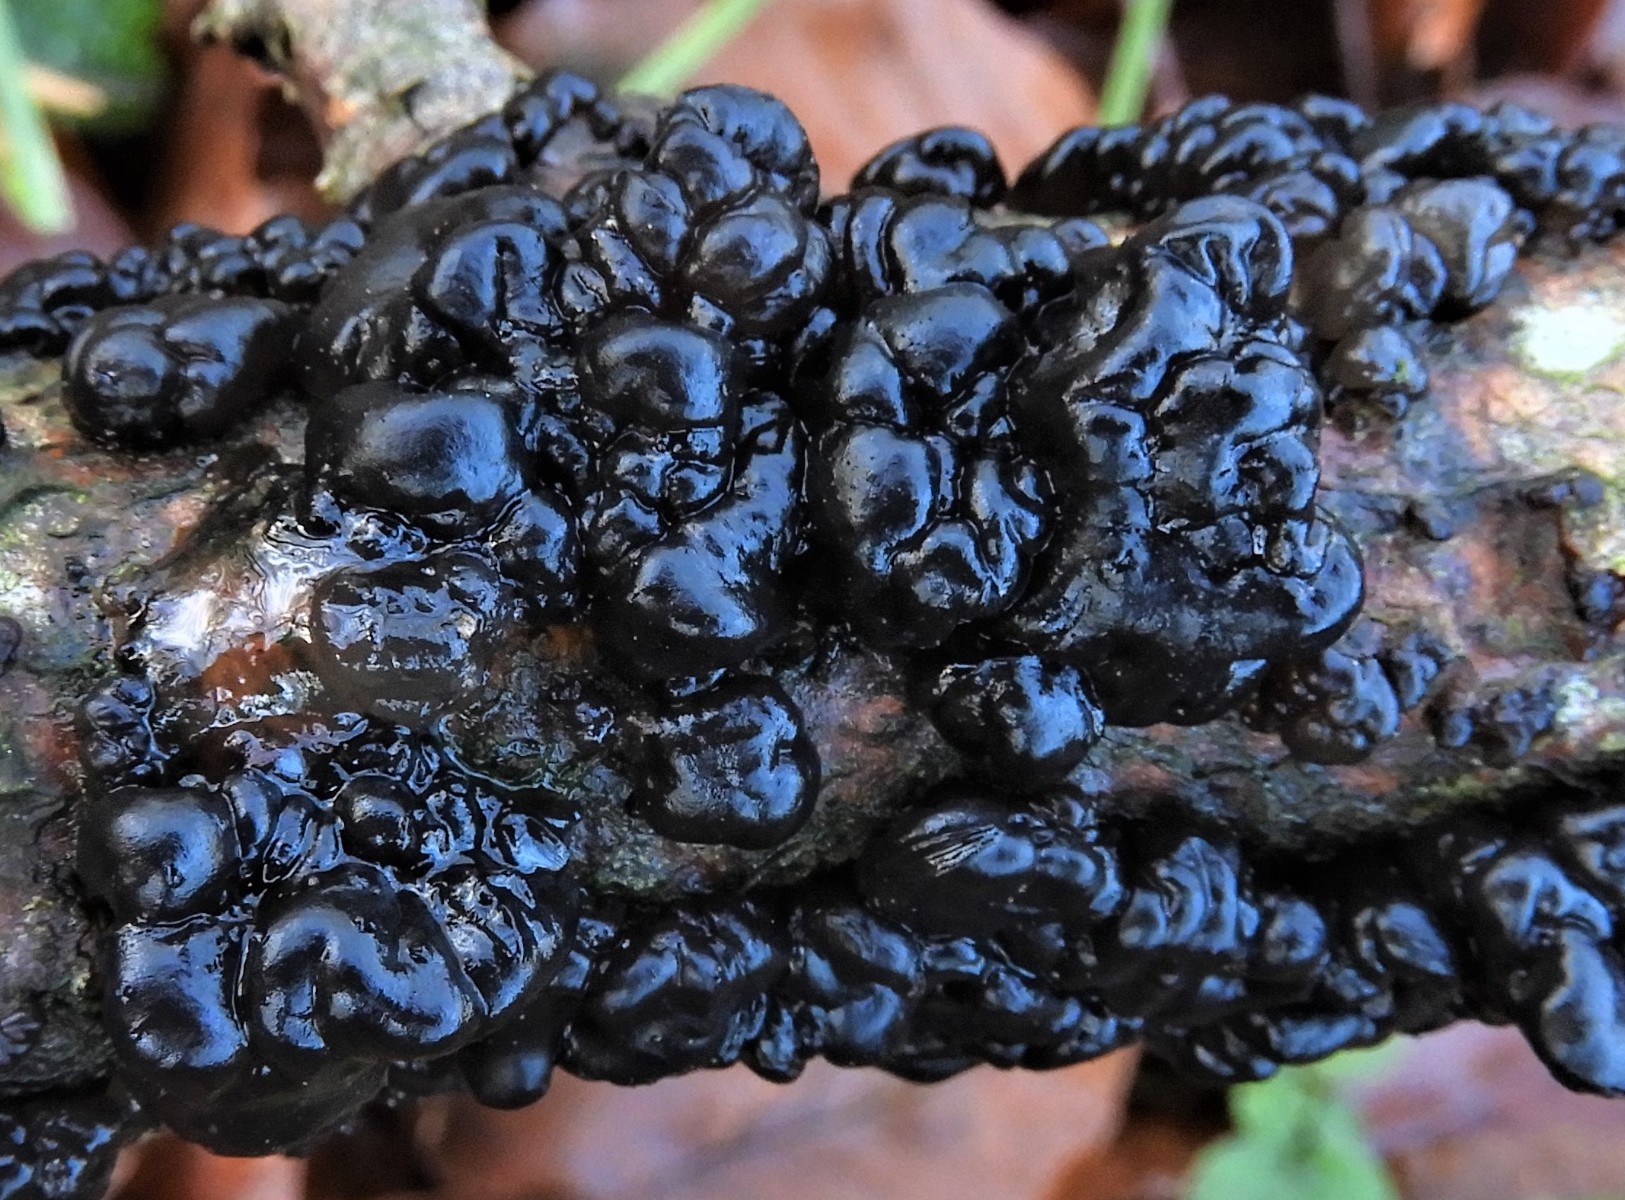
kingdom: Fungi
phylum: Basidiomycota
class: Agaricomycetes
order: Auriculariales
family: Auriculariaceae
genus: Exidia
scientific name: Exidia nigricans
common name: almindelig bævretop
